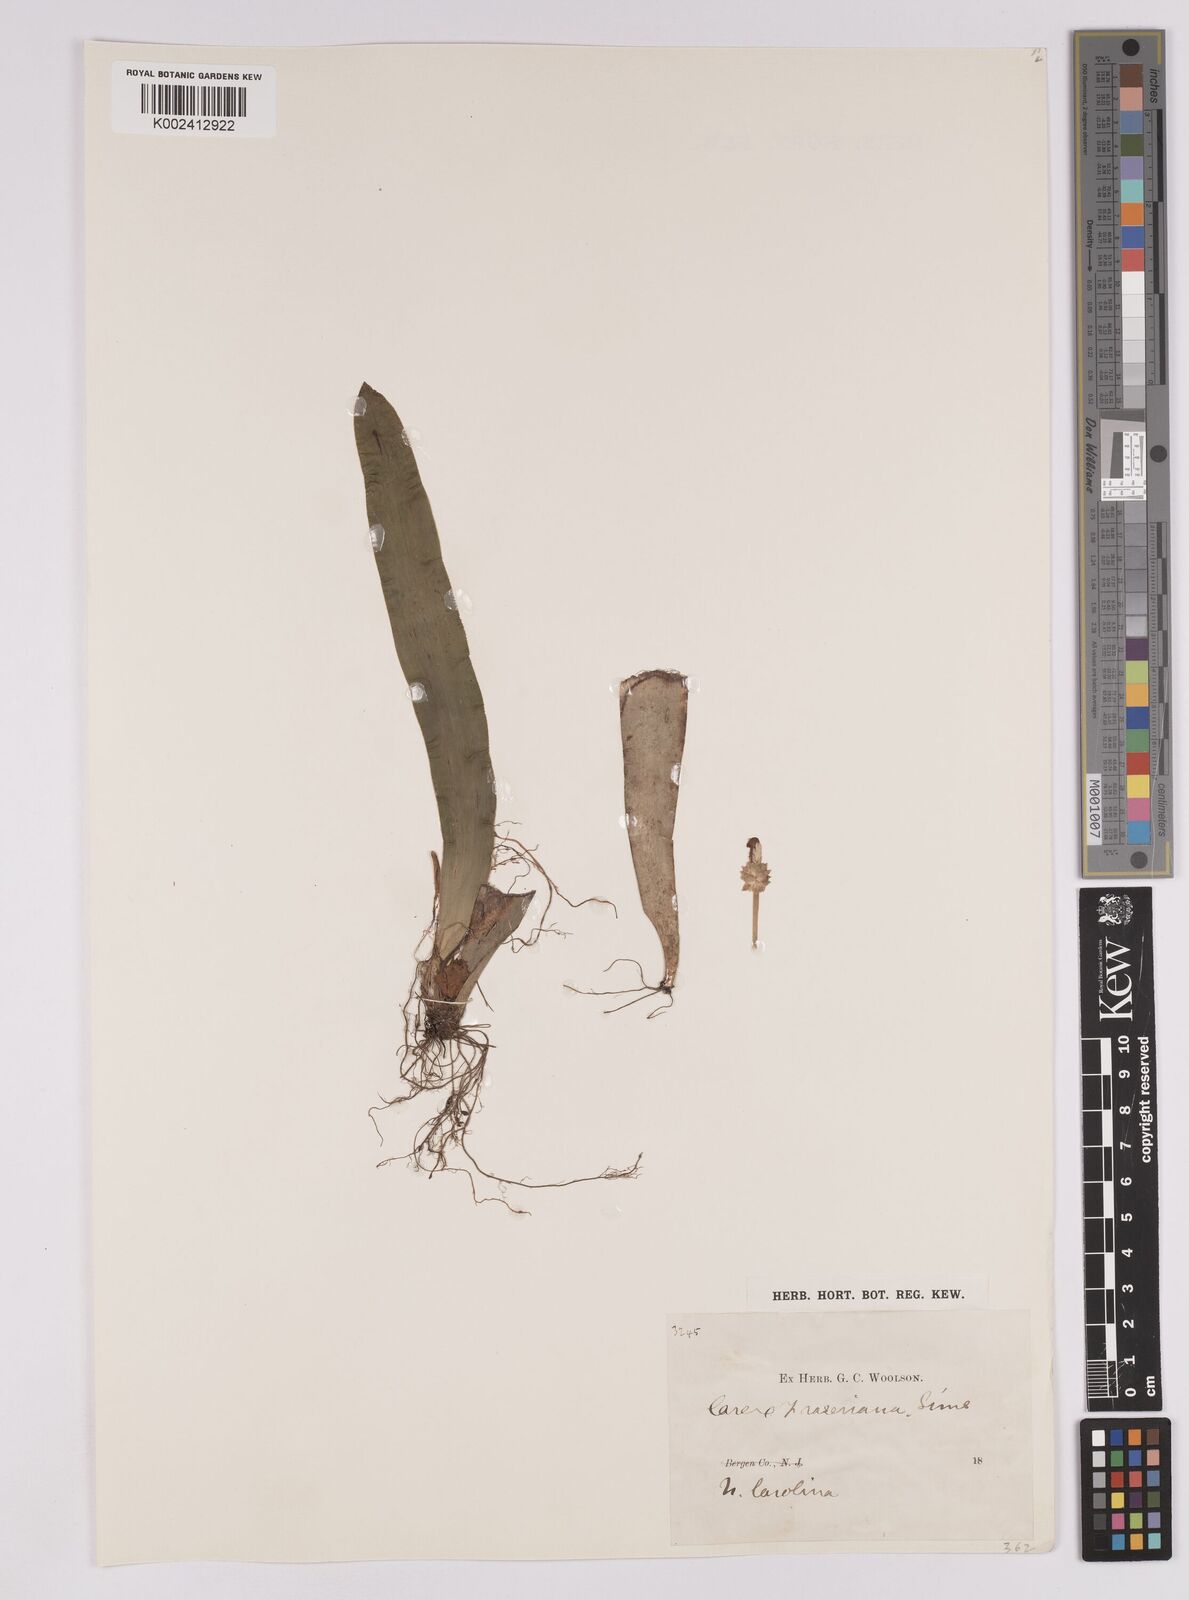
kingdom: Plantae
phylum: Tracheophyta
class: Liliopsida
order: Poales
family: Cyperaceae
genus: Carex
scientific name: Carex fraseriana
